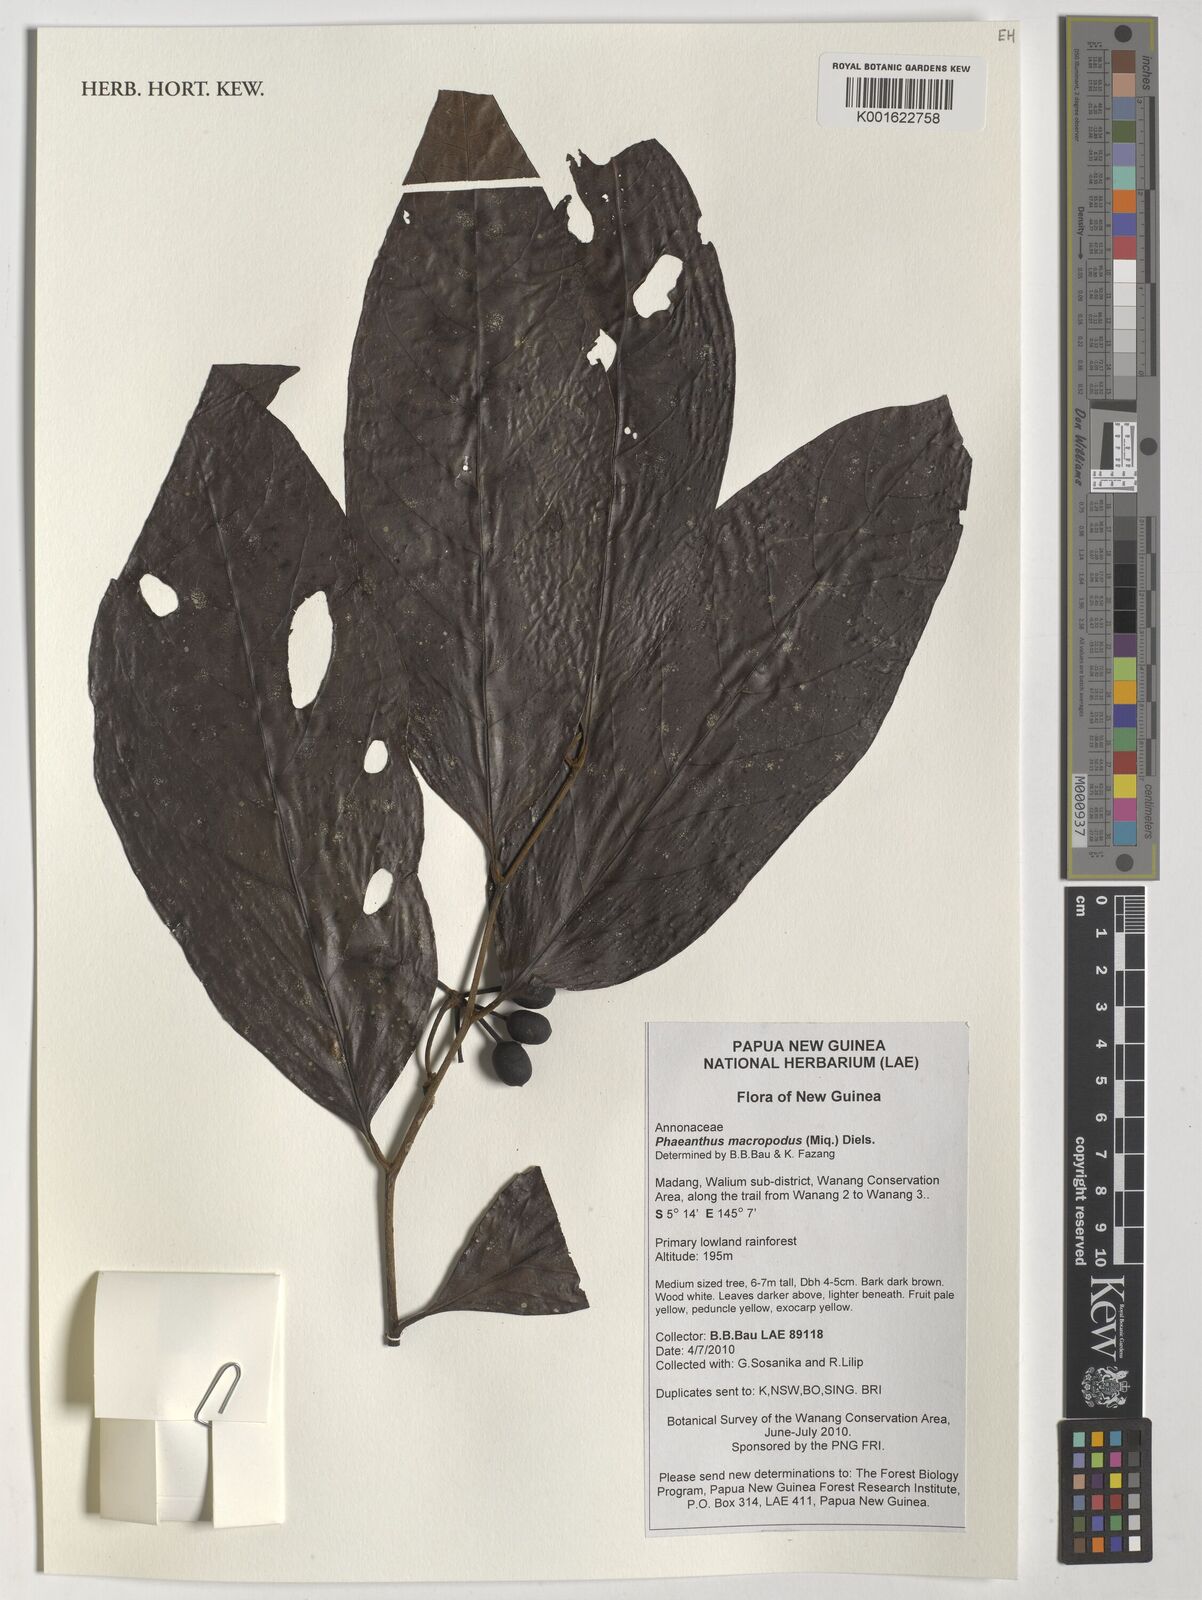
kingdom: Plantae
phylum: Tracheophyta
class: Magnoliopsida
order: Magnoliales
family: Annonaceae
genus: Phaeanthus
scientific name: Phaeanthus ophthalmicus
